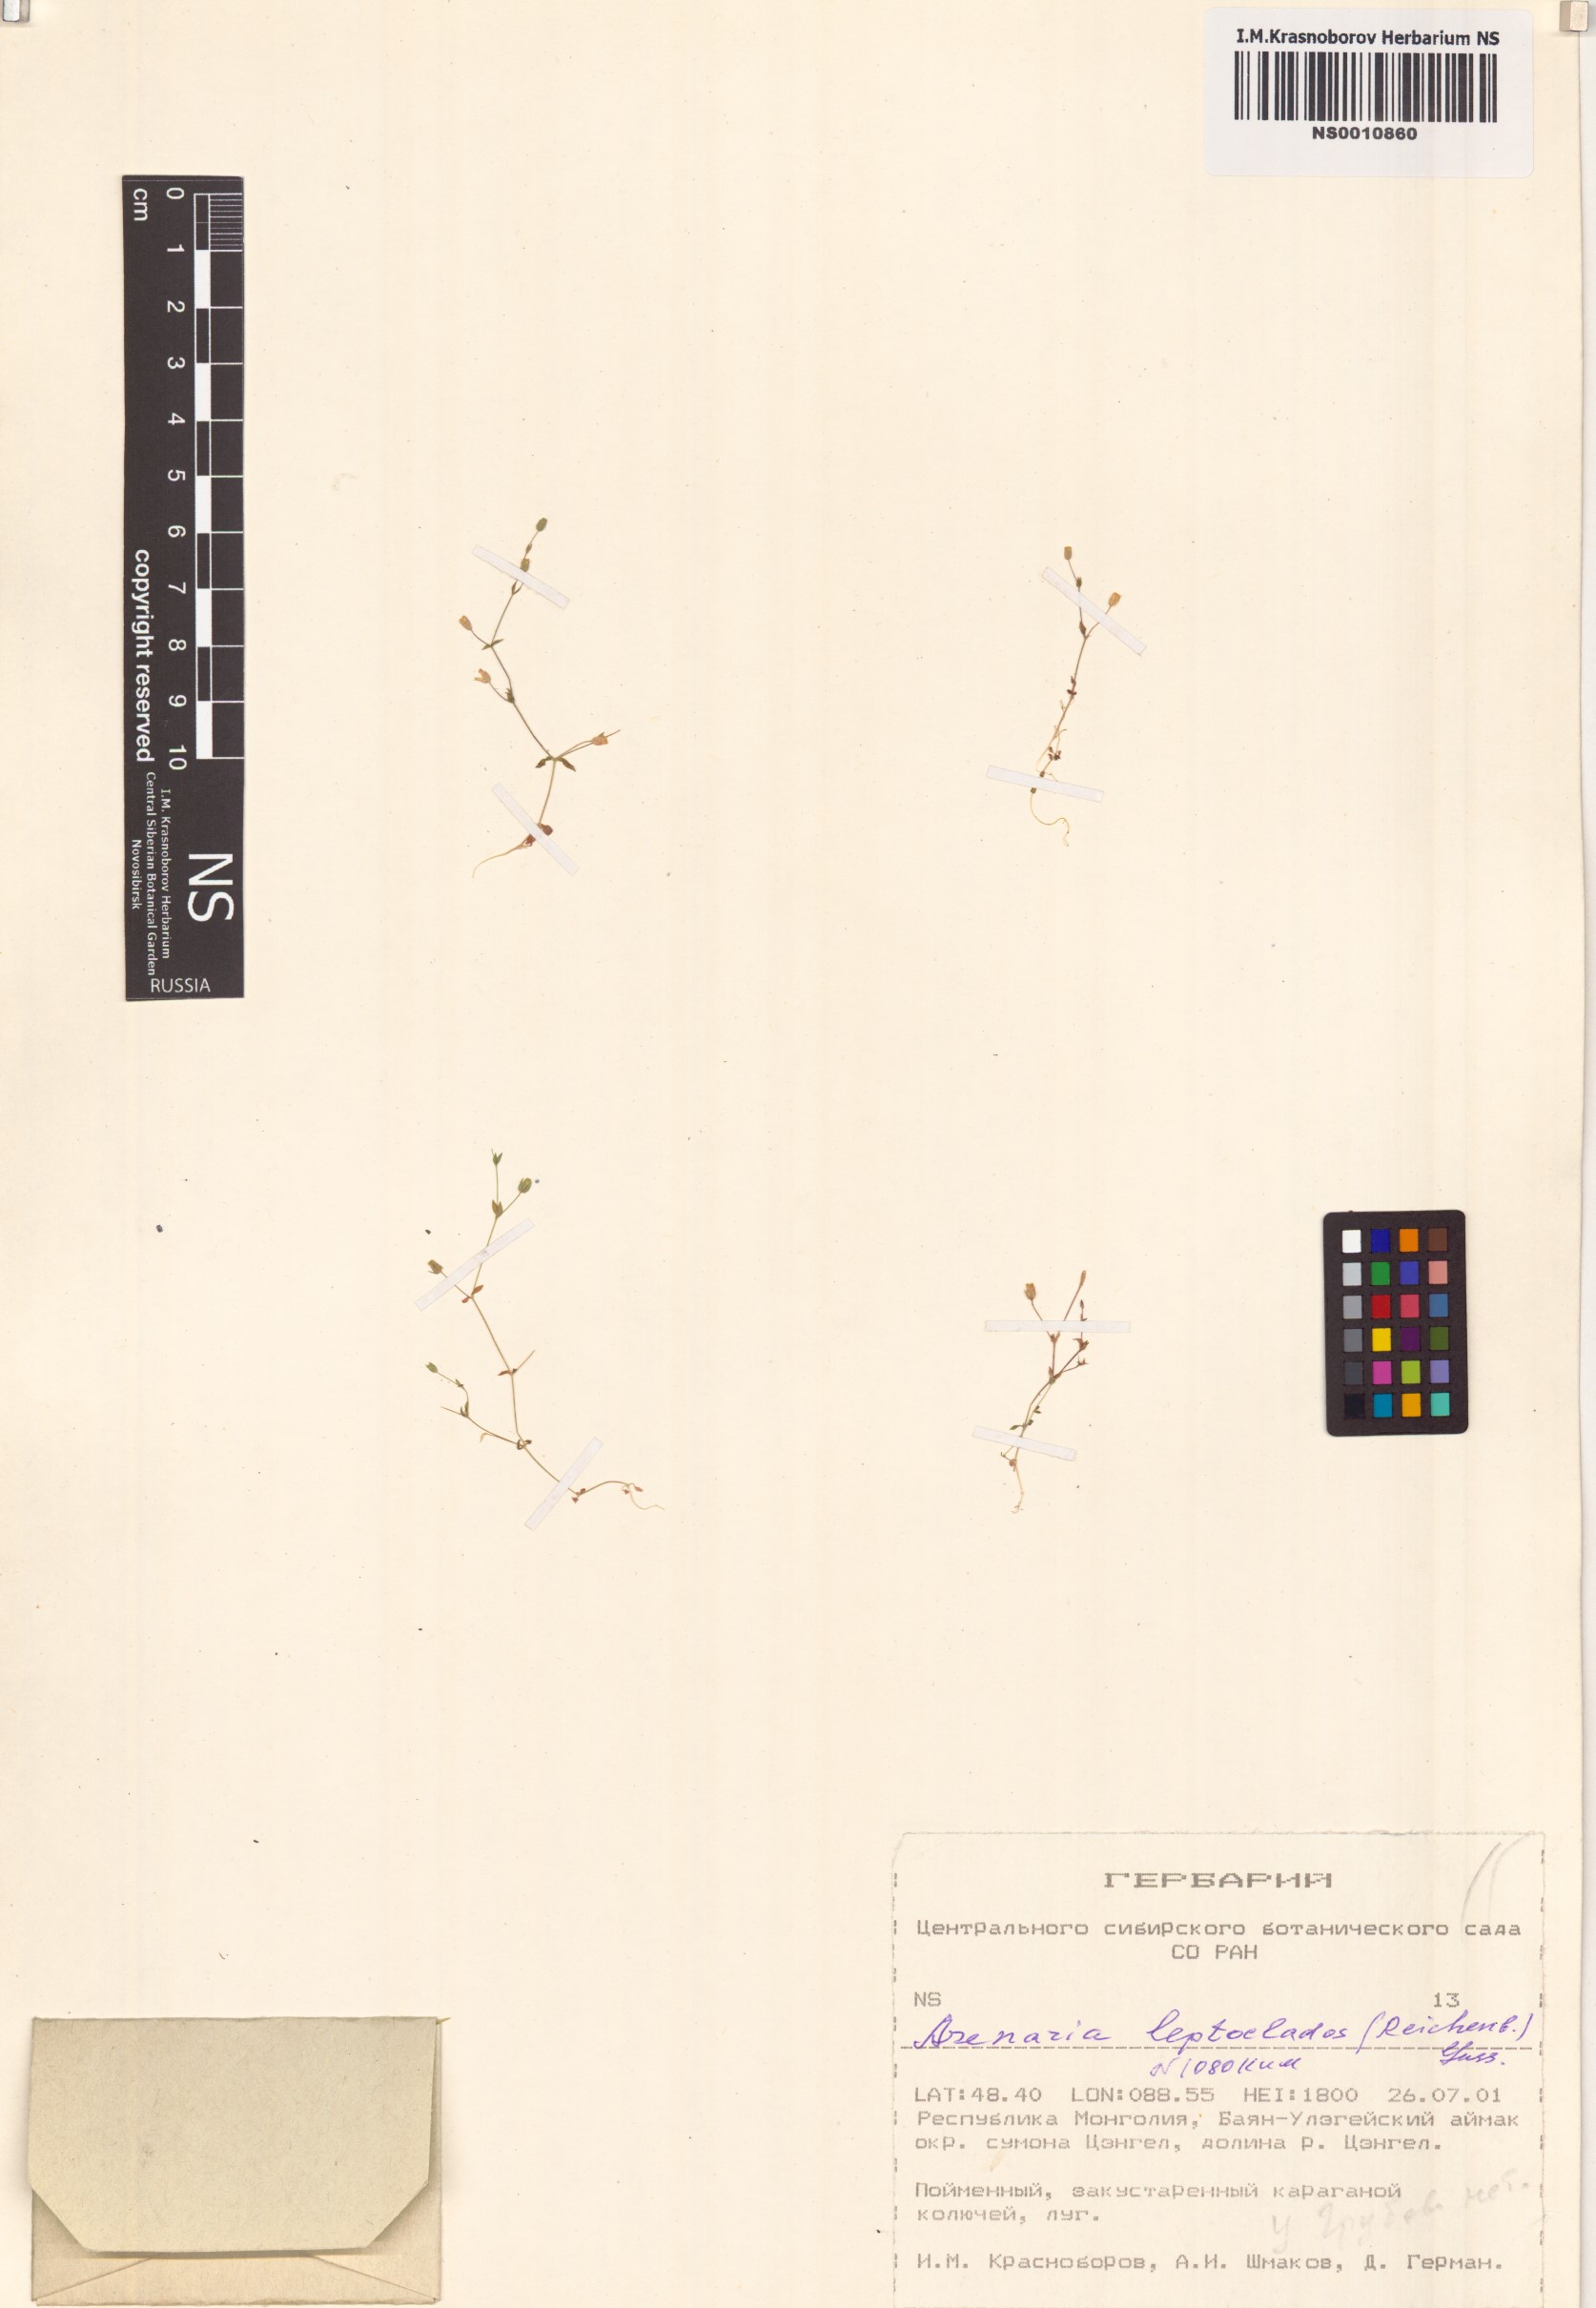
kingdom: Plantae
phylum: Tracheophyta
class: Magnoliopsida
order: Caryophyllales
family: Caryophyllaceae
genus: Arenaria
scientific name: Arenaria leptoclados
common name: Thyme-leaved sandwort
